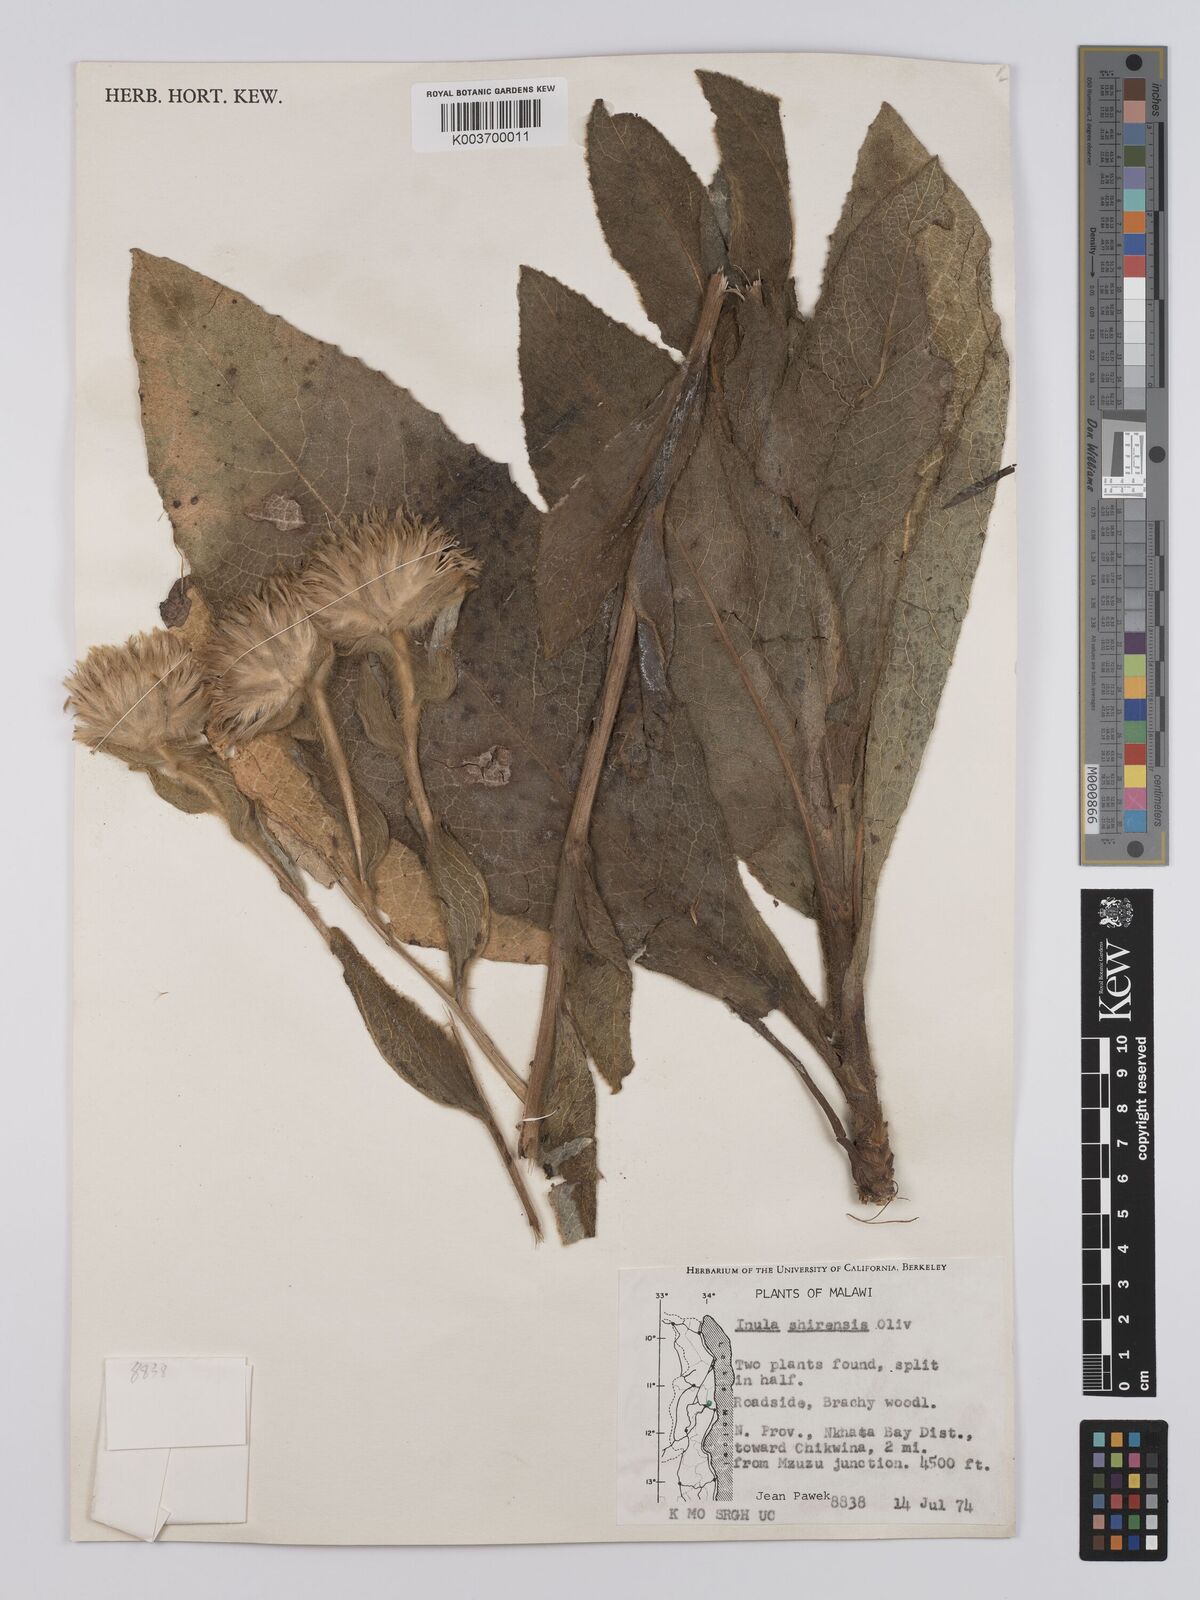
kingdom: Plantae
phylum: Tracheophyta
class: Magnoliopsida
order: Asterales
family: Asteraceae
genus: Monactinocephalus
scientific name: Monactinocephalus shirensis
